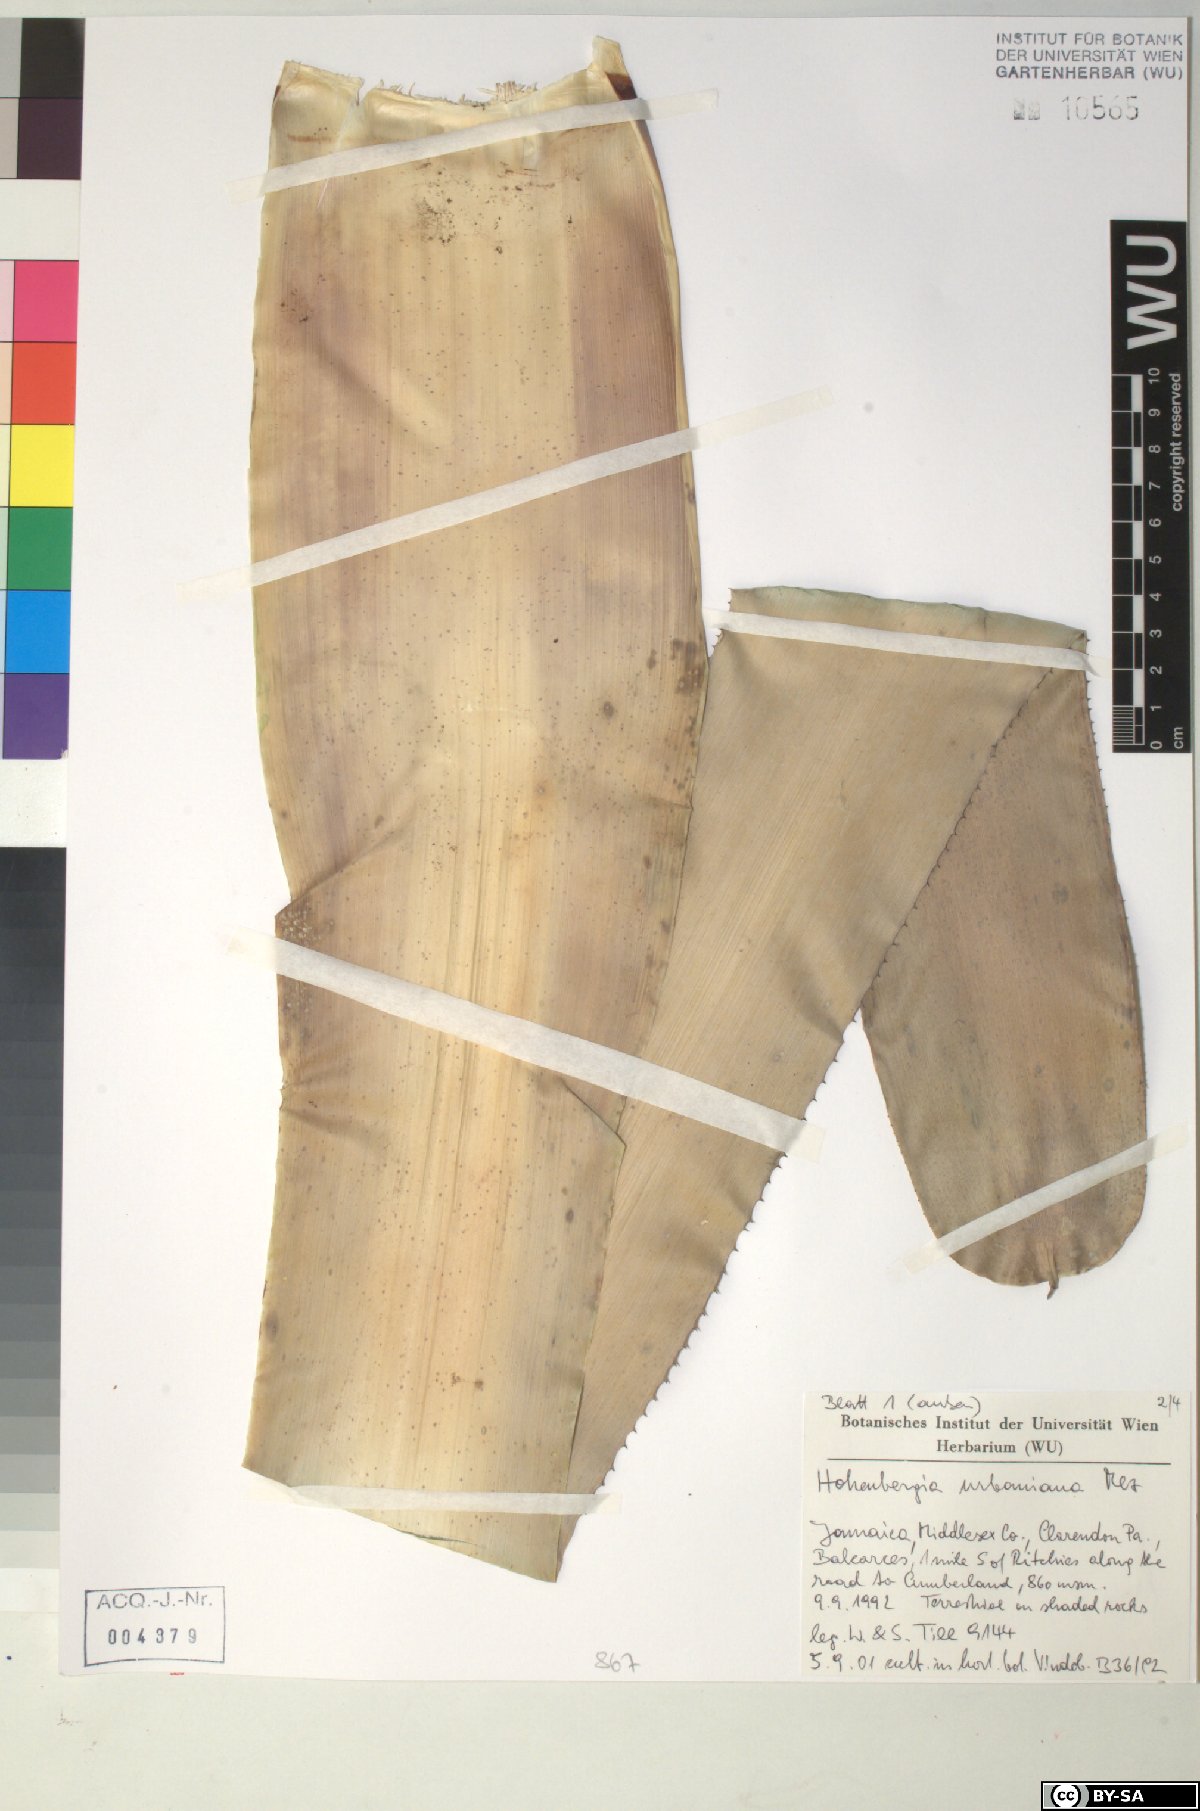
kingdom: Plantae
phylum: Tracheophyta
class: Liliopsida
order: Poales
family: Bromeliaceae
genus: Wittmackia
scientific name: Wittmackia urbaniana
